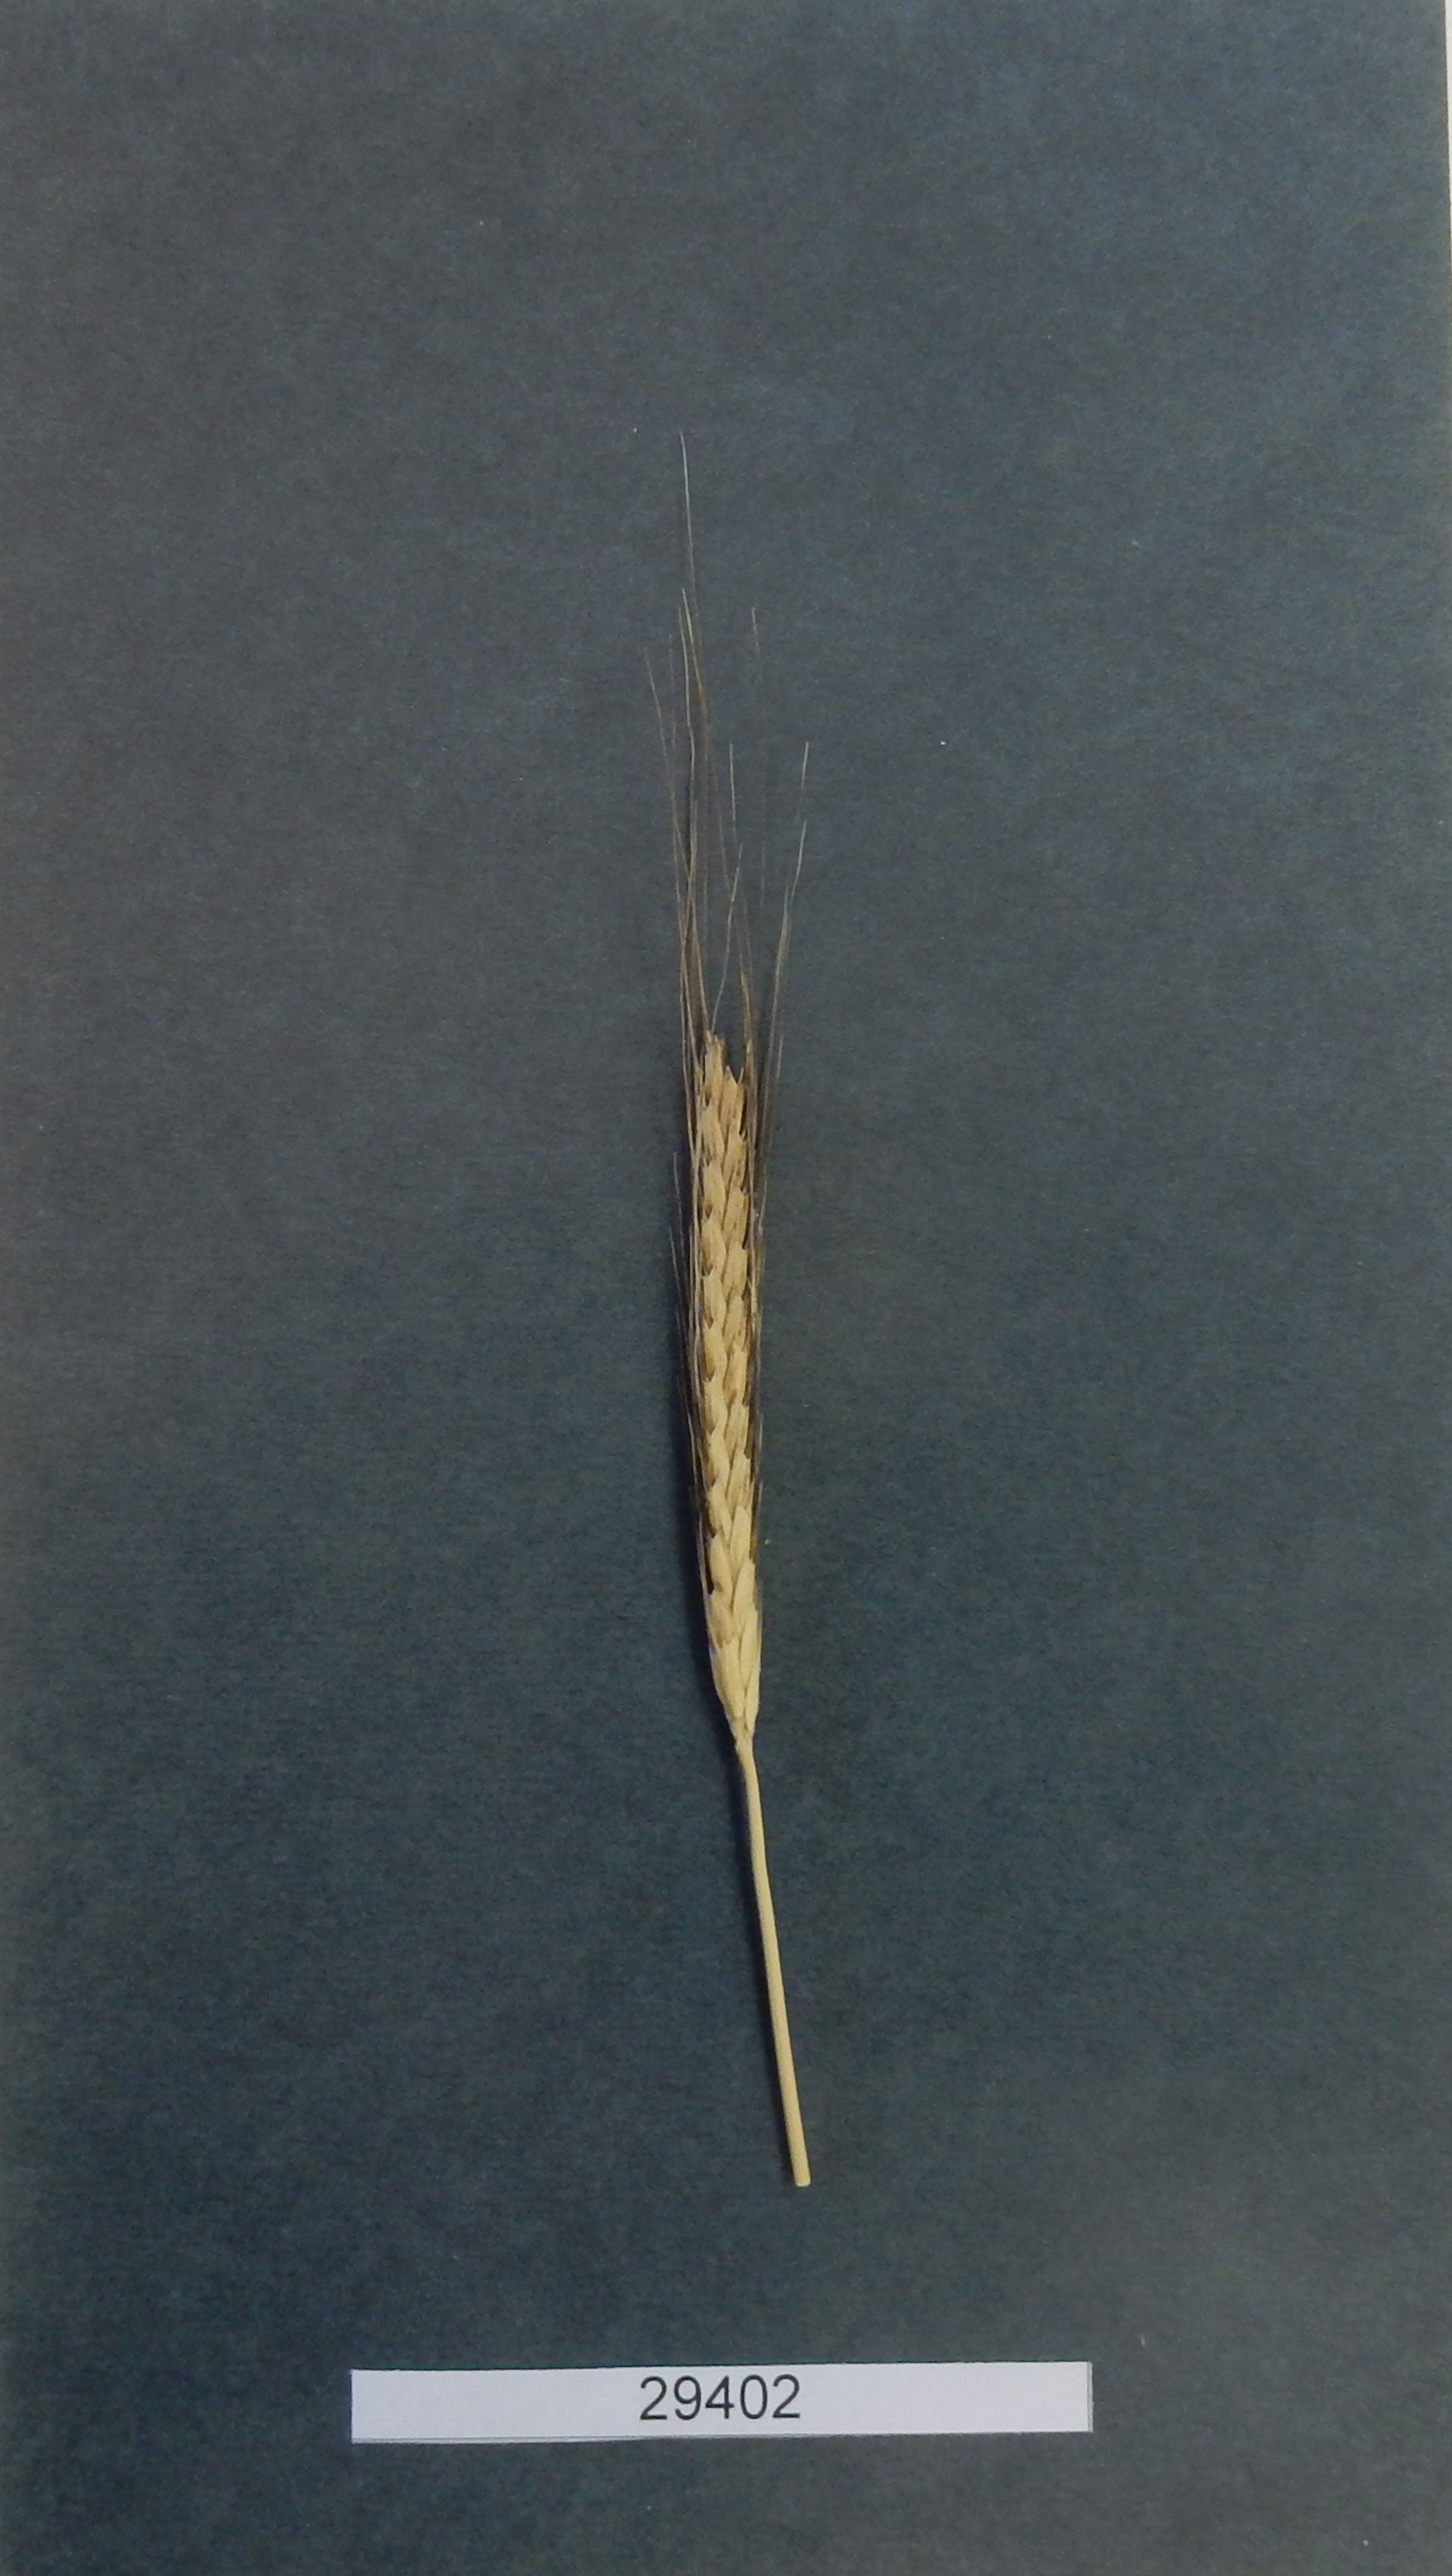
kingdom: Plantae
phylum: Tracheophyta
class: Liliopsida
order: Poales
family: Poaceae
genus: Triticum
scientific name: Triticum monococcum
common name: Wheat
